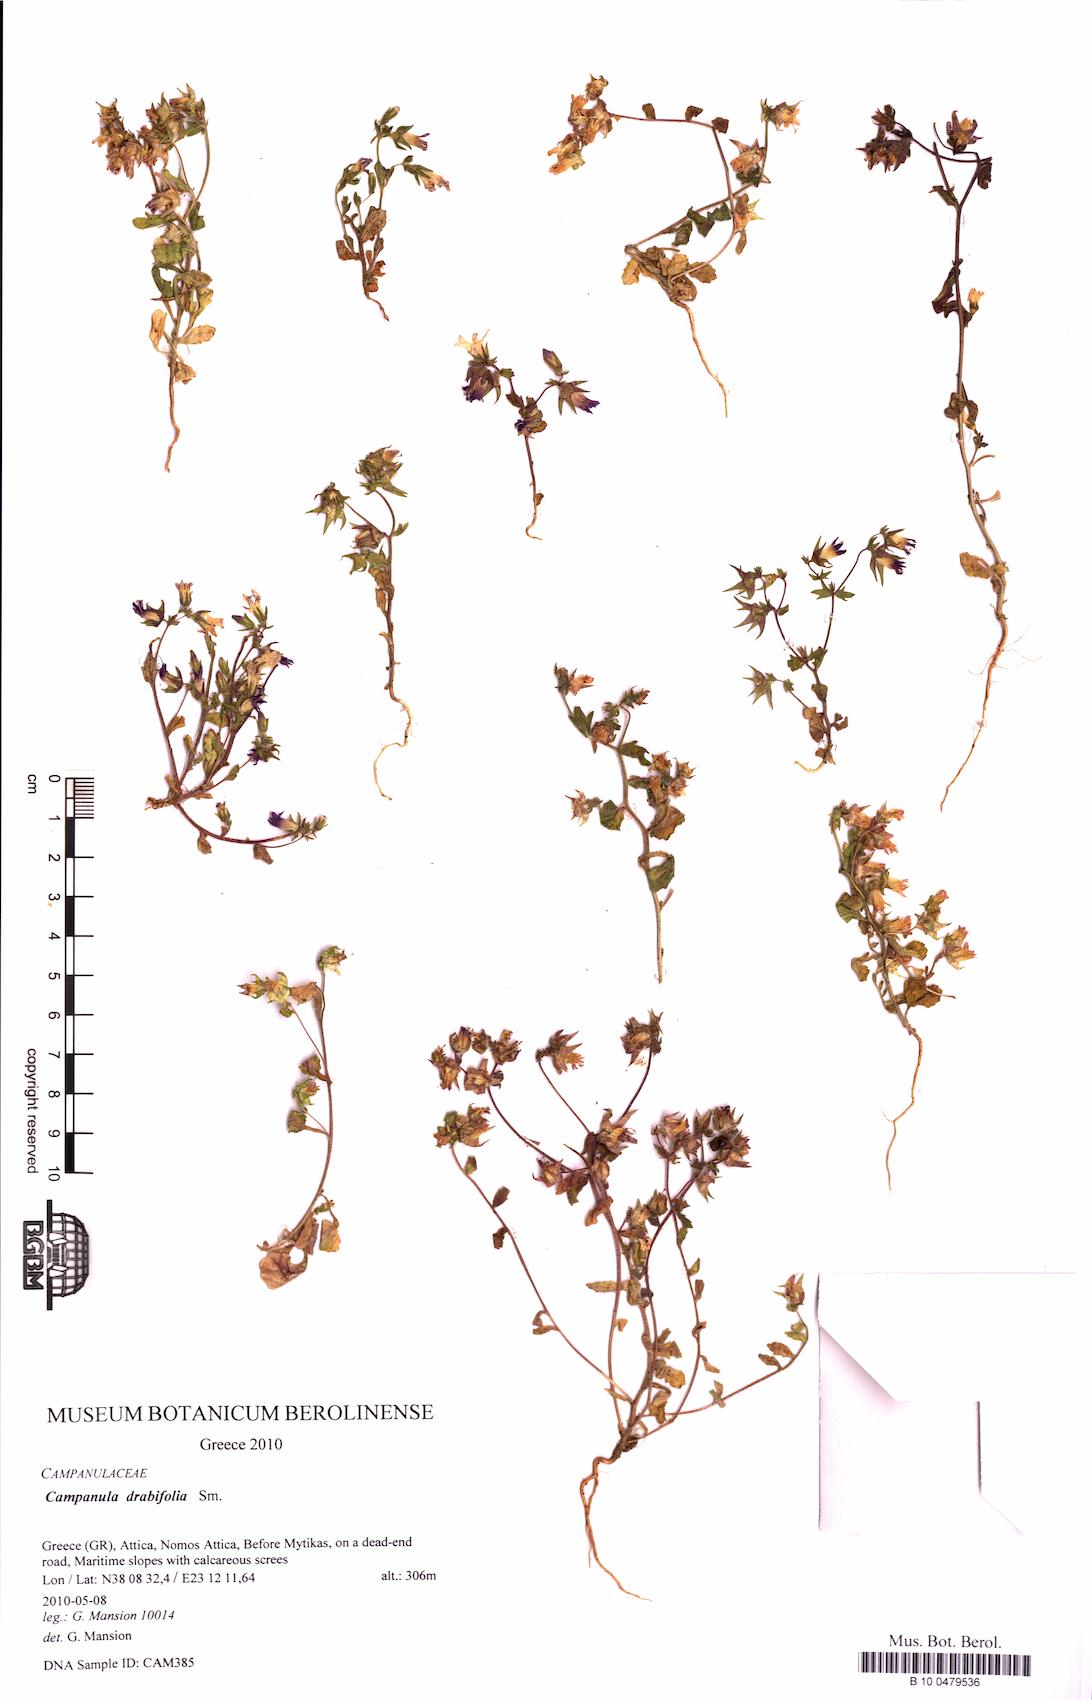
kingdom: Plantae
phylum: Tracheophyta
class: Magnoliopsida
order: Asterales
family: Campanulaceae
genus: Campanula
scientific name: Campanula drabifolia
